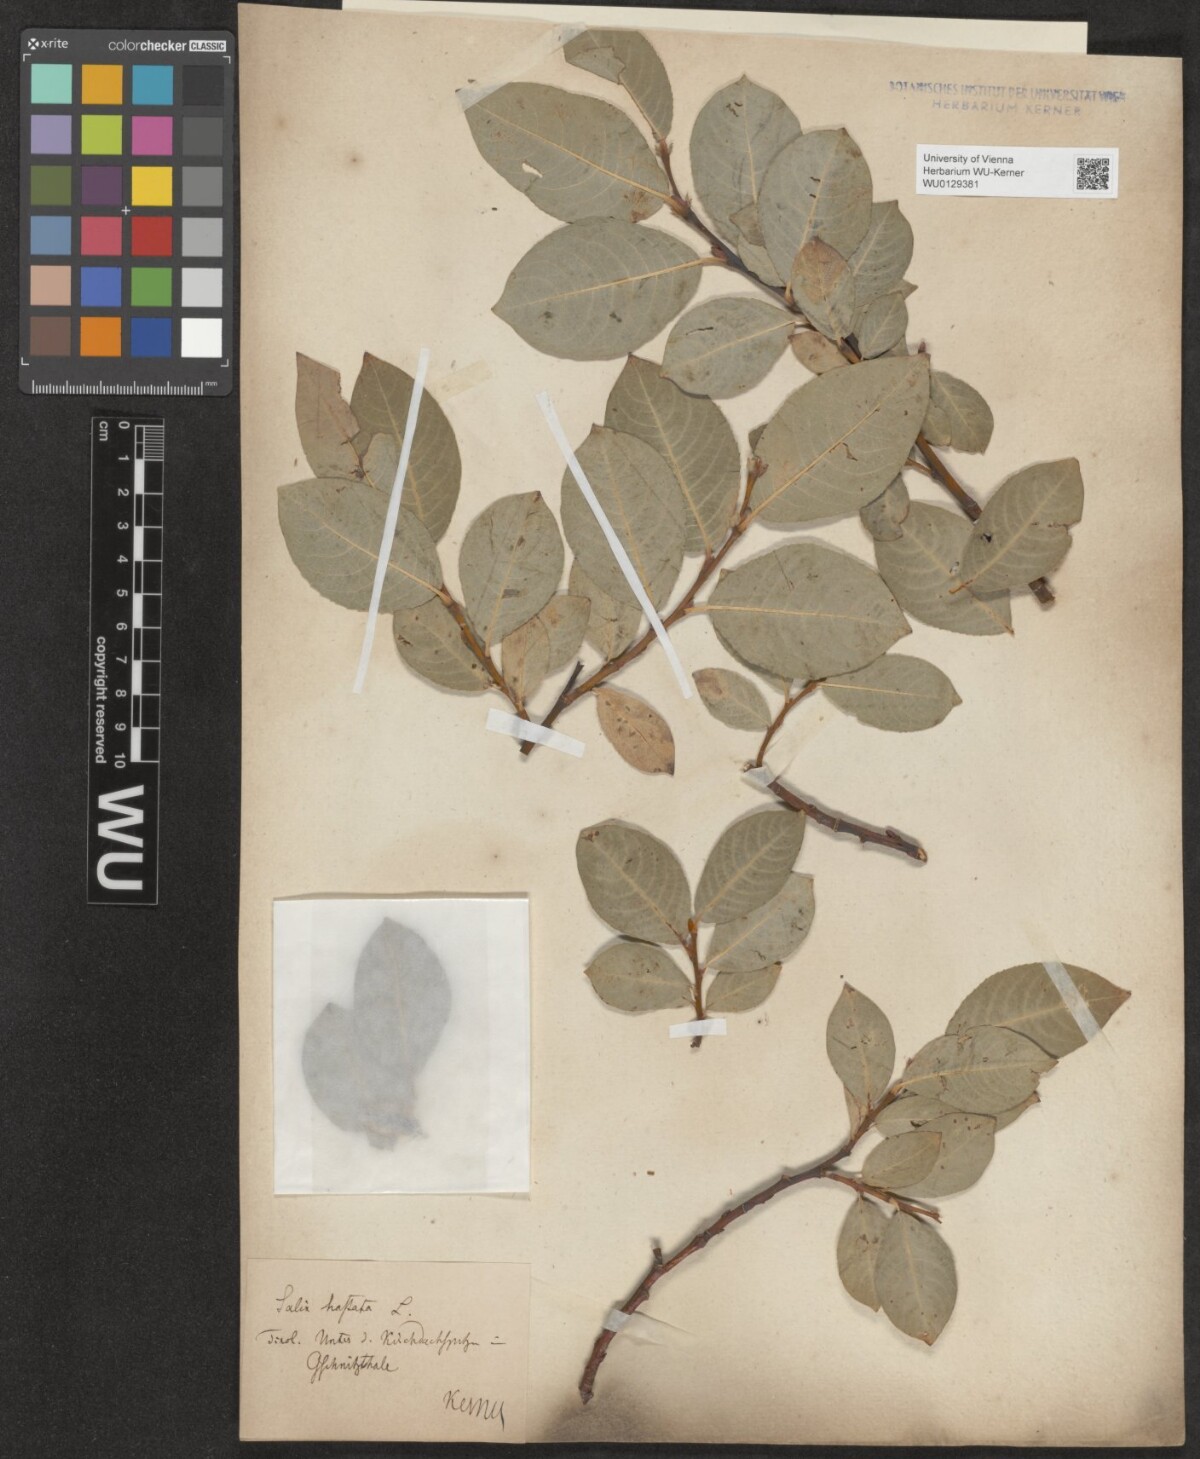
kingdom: Plantae
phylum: Tracheophyta
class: Magnoliopsida
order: Malpighiales
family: Salicaceae
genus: Salix
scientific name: Salix hastata
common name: Halberd willow
